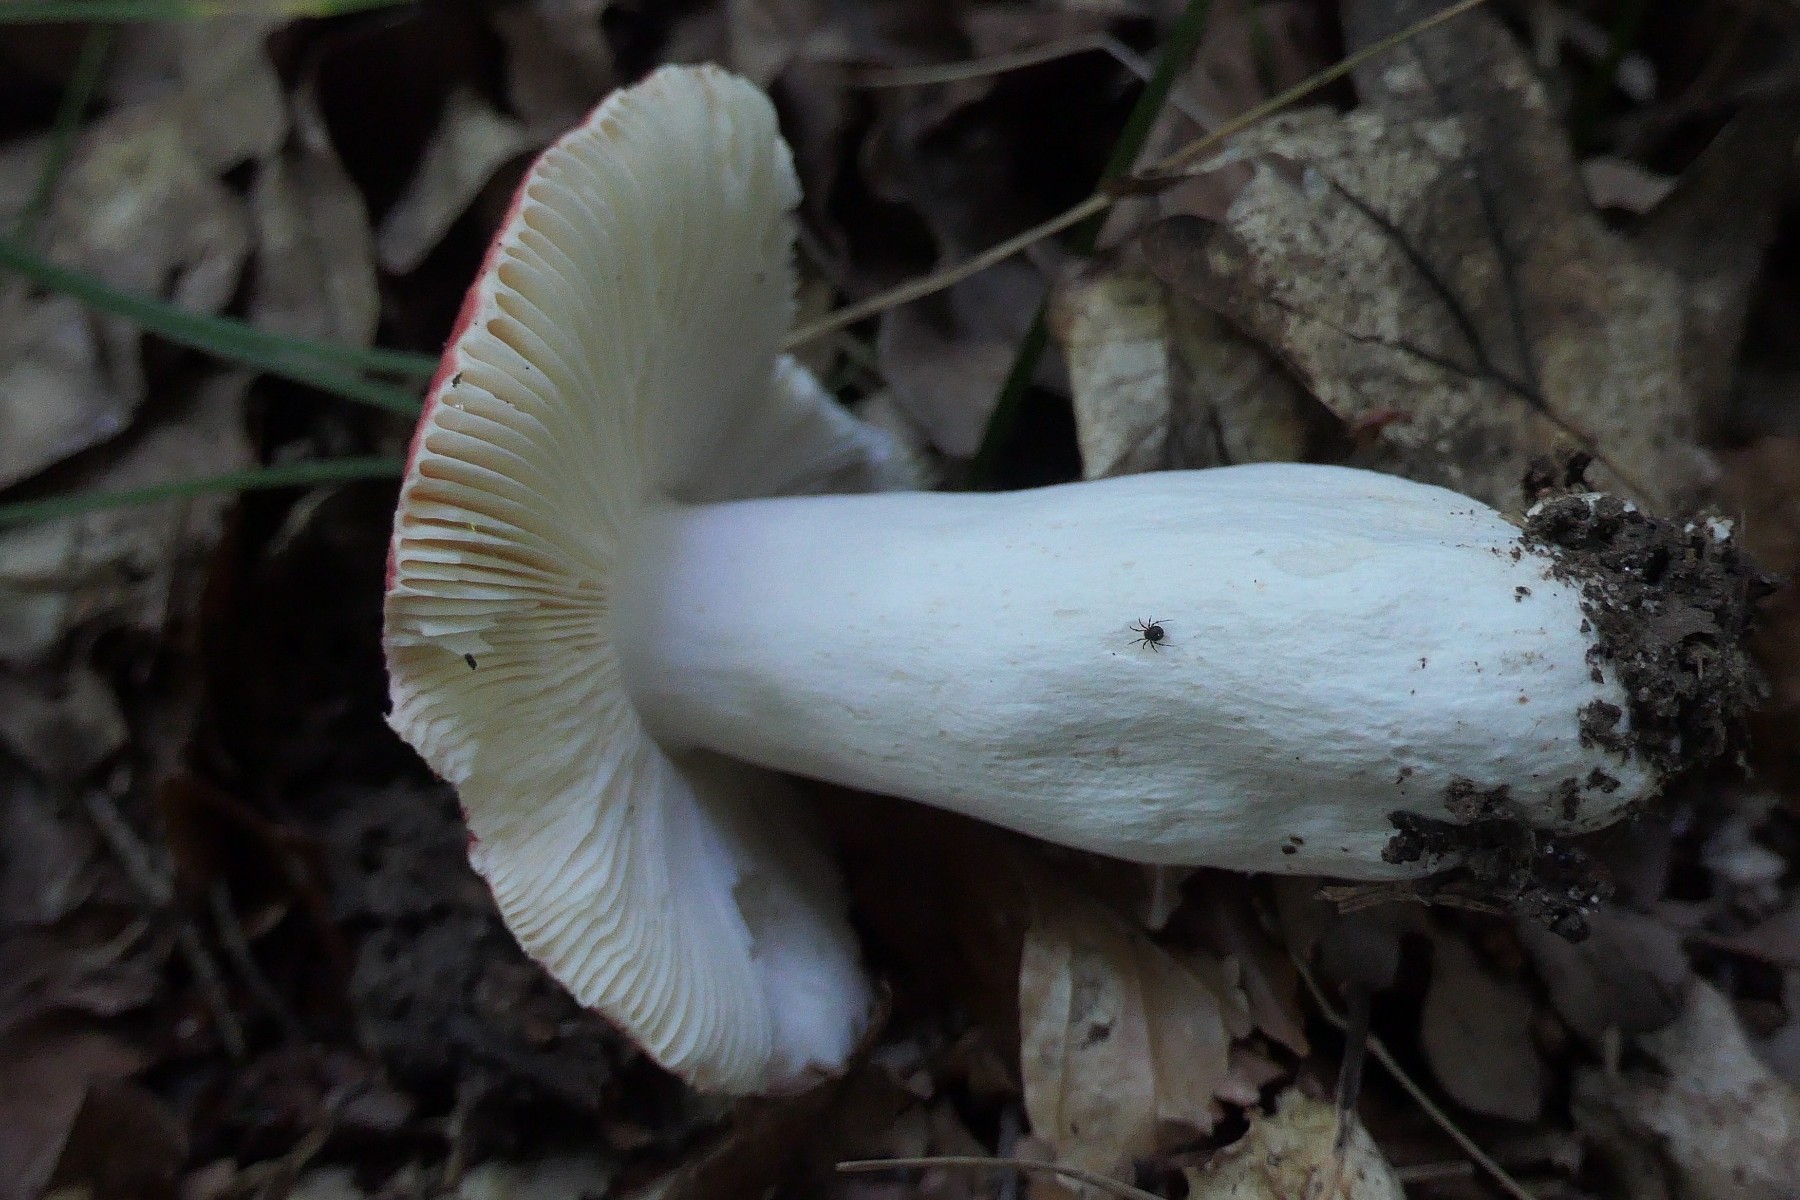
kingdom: Fungi
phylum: Basidiomycota
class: Agaricomycetes
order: Russulales
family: Russulaceae
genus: Russula
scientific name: Russula pseudointegra
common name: cinnoberrød skørhat
